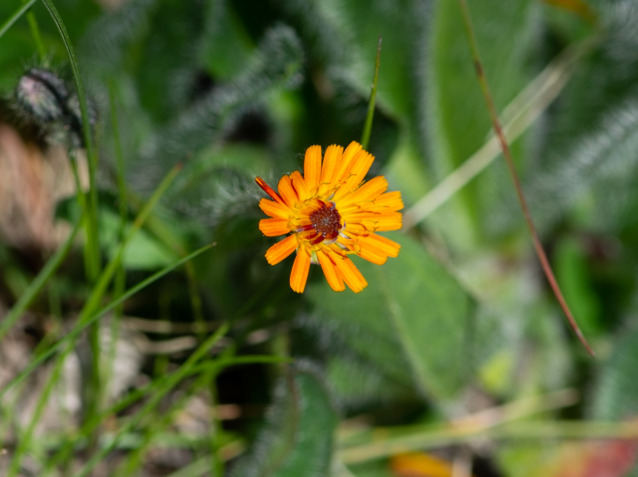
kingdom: Plantae
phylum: Tracheophyta
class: Magnoliopsida
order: Asterales
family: Asteraceae
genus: Pilosella
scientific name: Pilosella aurantiaca
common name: Pomerans-høgeurt
